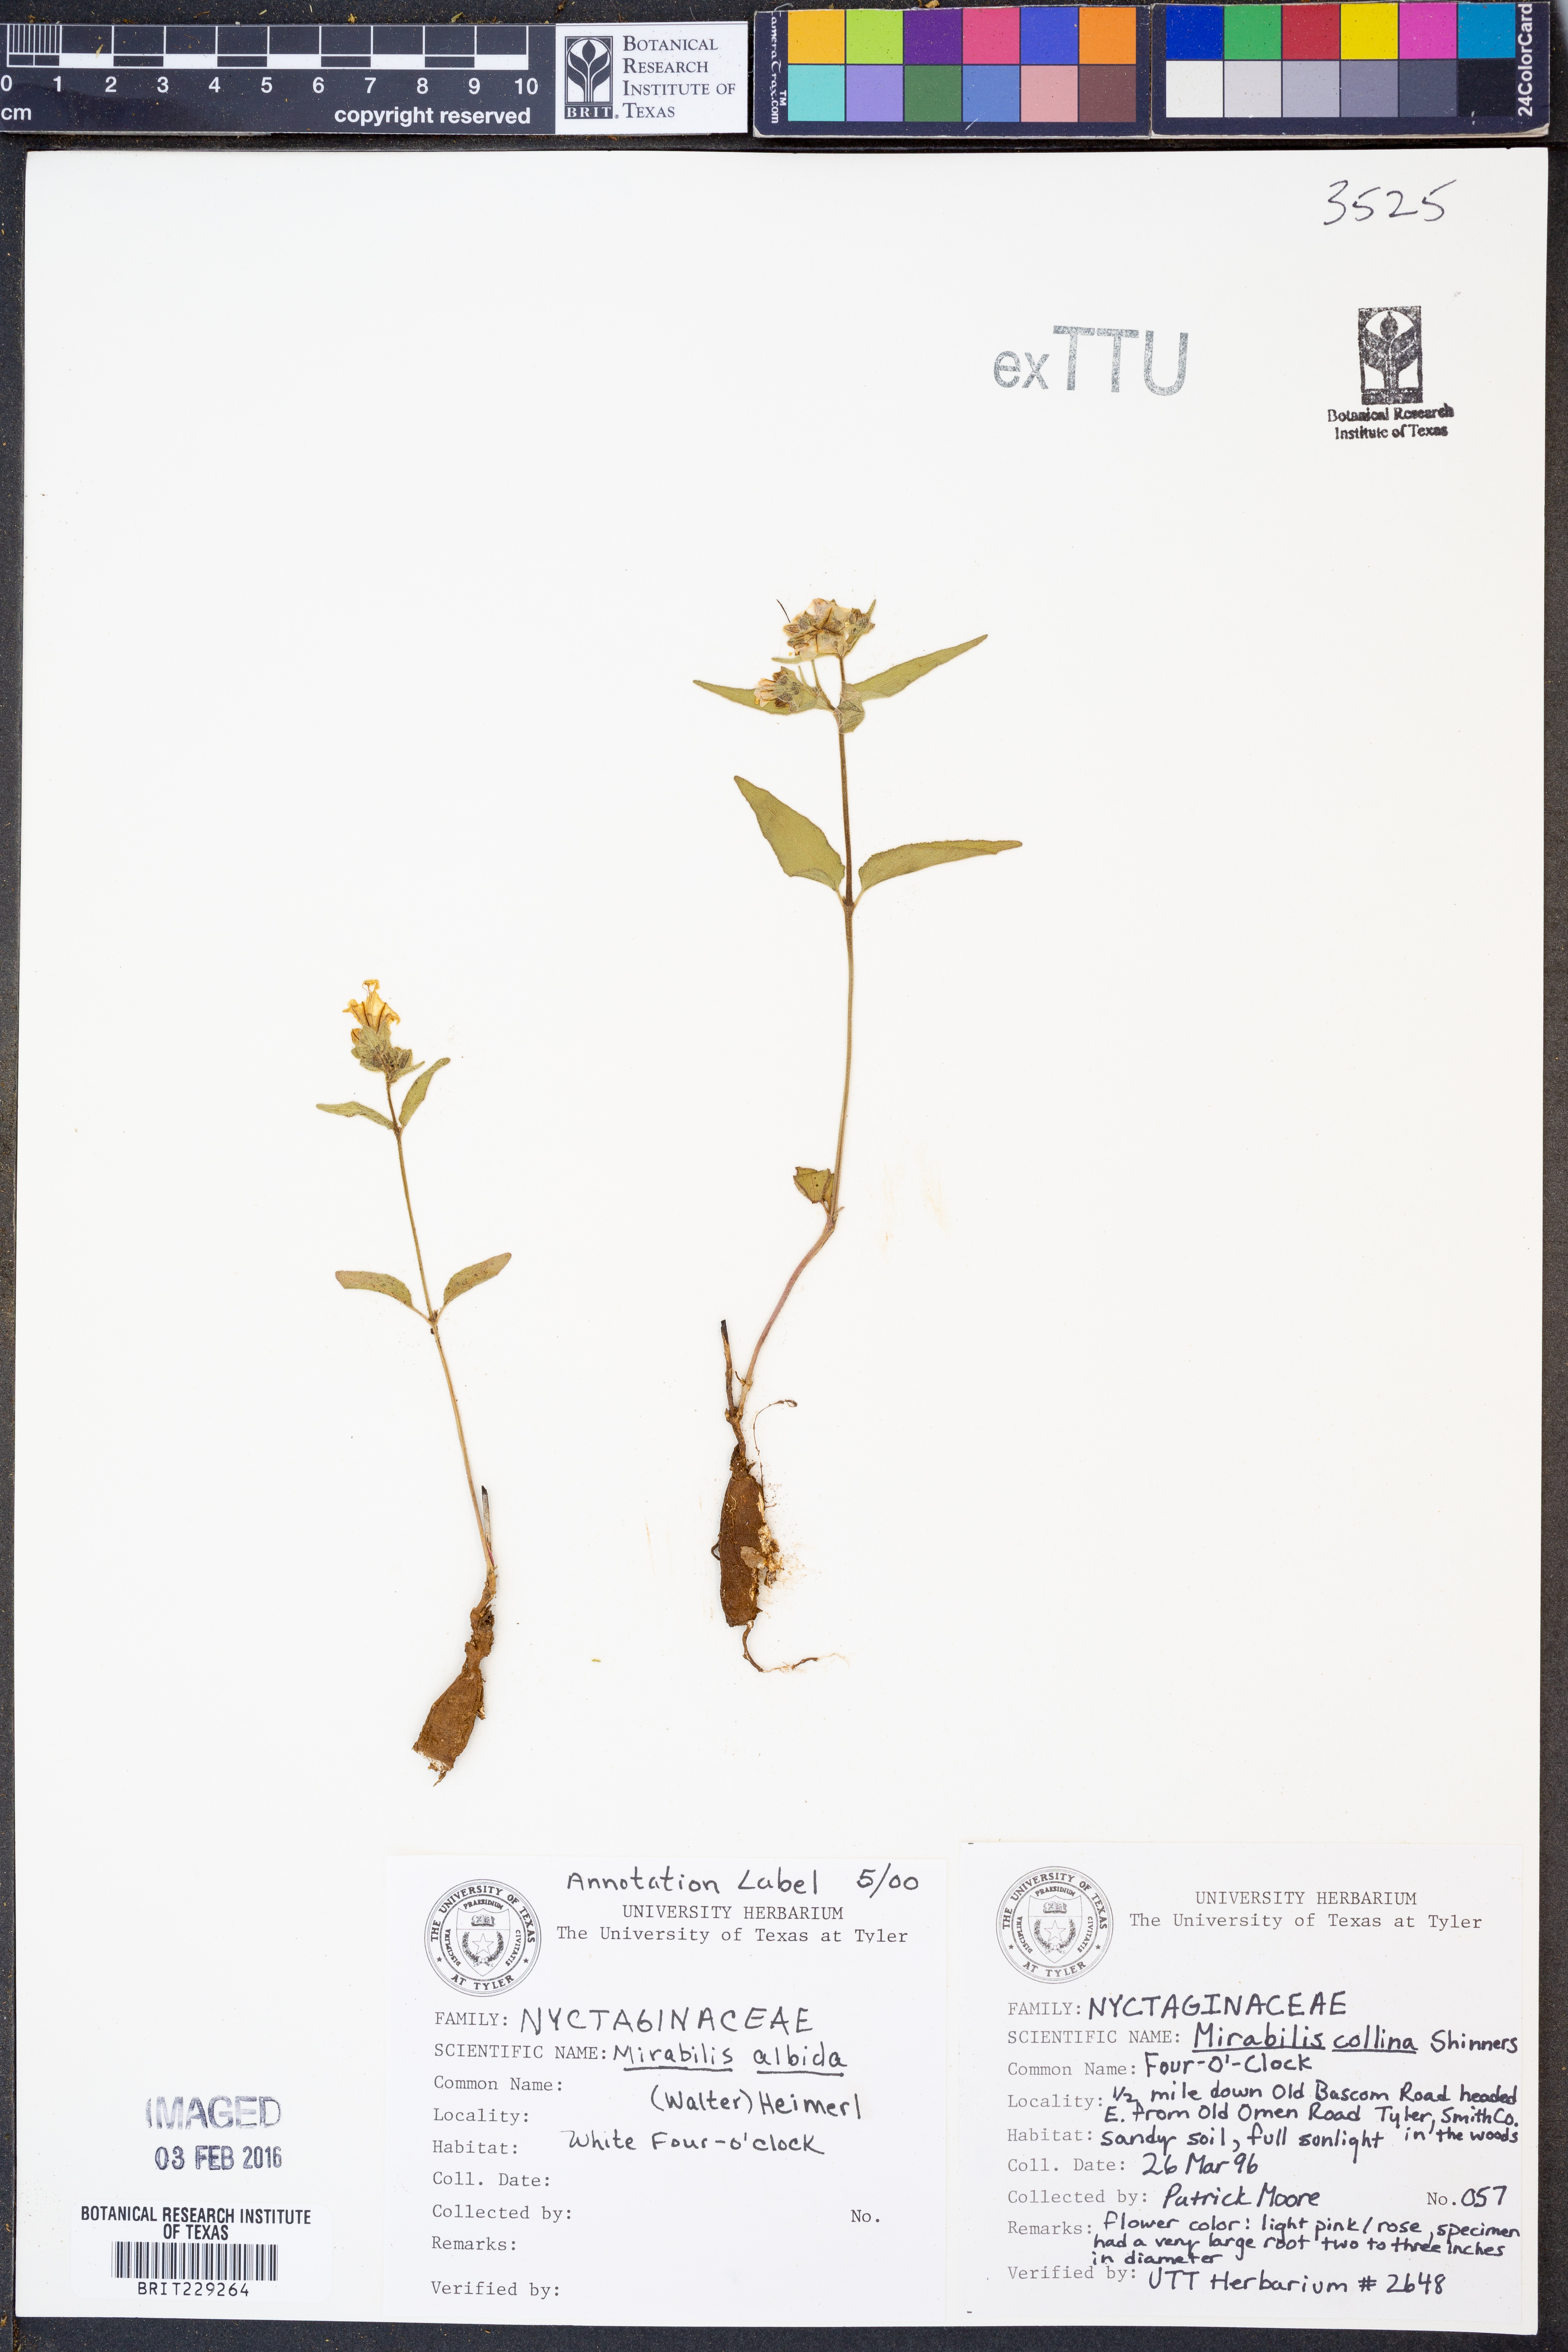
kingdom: Plantae
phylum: Tracheophyta
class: Magnoliopsida
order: Caryophyllales
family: Nyctaginaceae
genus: Mirabilis
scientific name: Mirabilis albida
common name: Hairy four-o'clock
